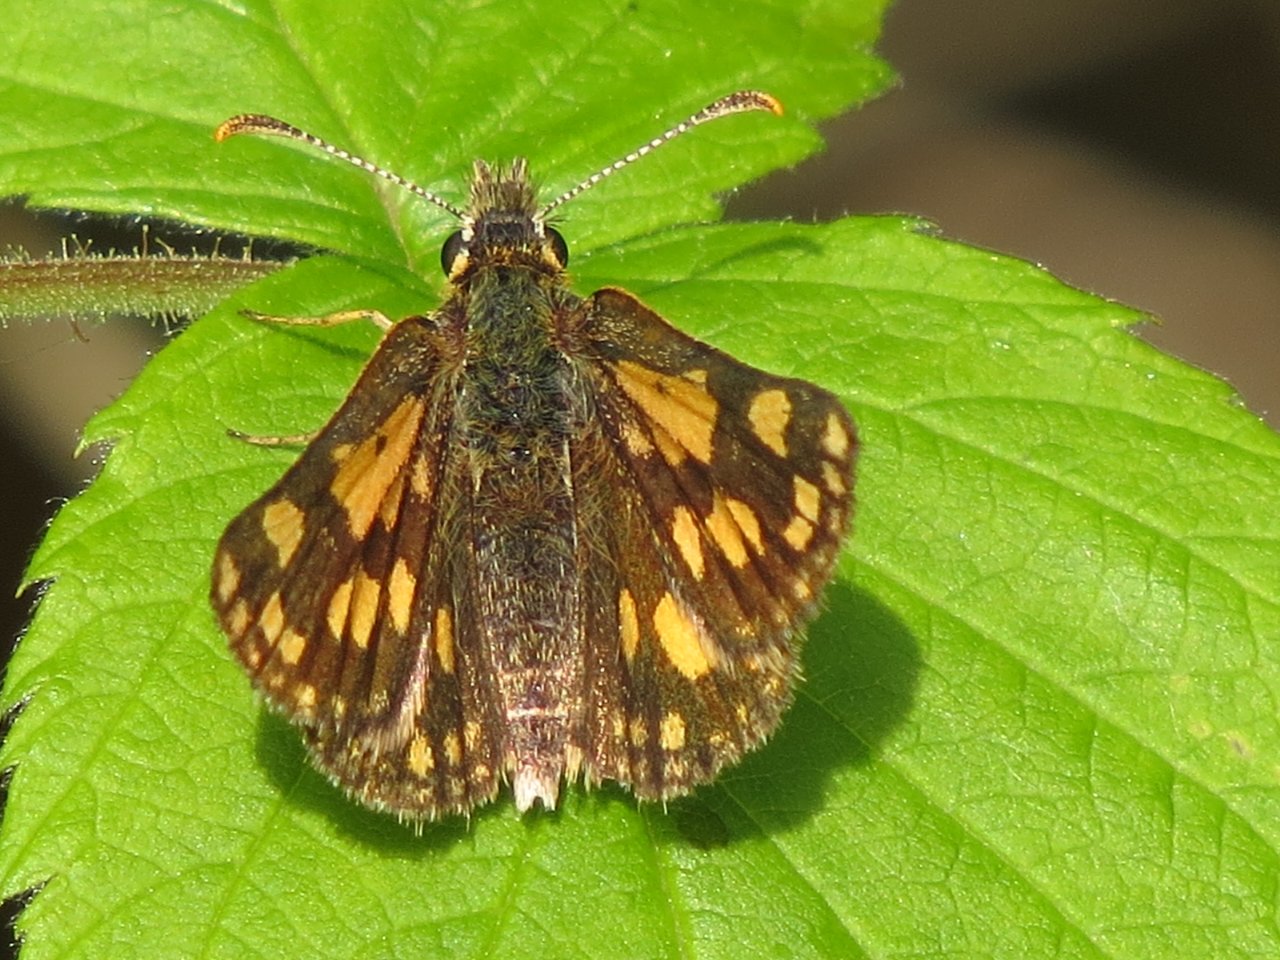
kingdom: Animalia
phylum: Arthropoda
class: Insecta
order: Lepidoptera
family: Hesperiidae
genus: Carterocephalus
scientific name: Carterocephalus palaemon
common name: Chequered Skipper
